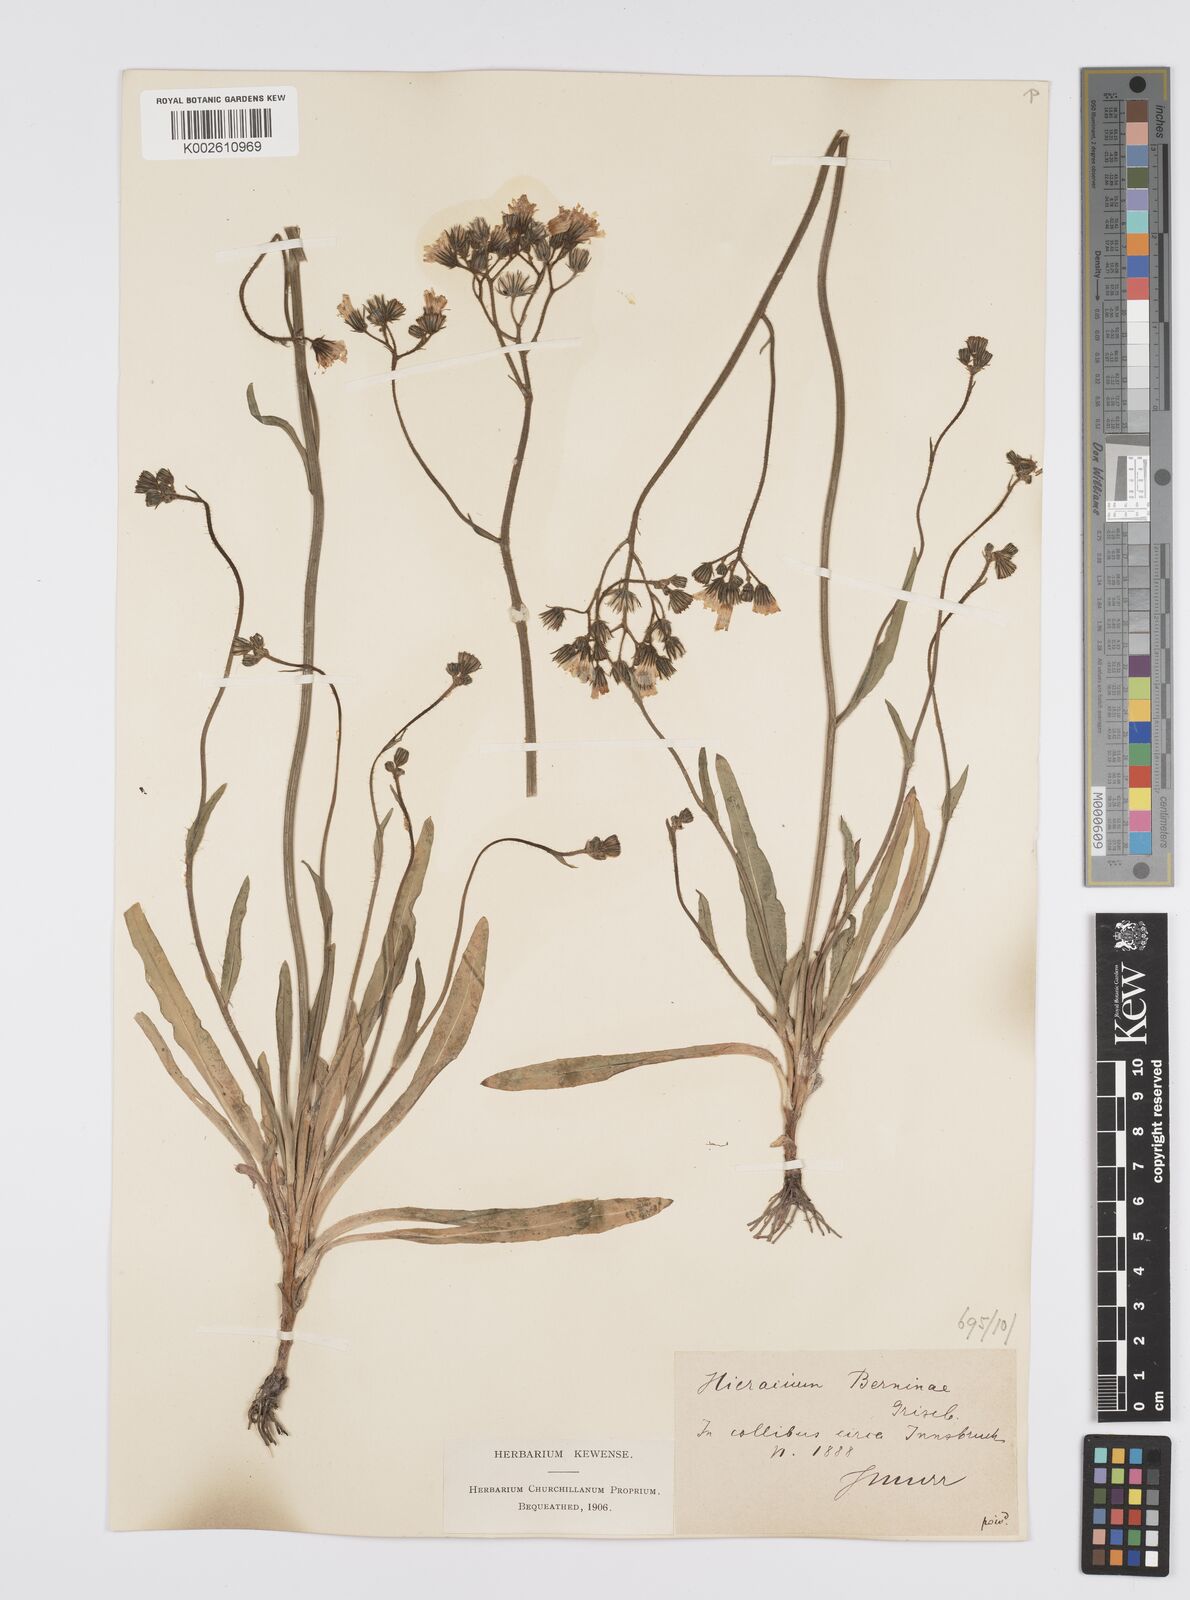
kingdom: Plantae
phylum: Tracheophyta
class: Magnoliopsida
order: Asterales
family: Asteraceae
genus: Pilosella
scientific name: Pilosella piloselloides
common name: Glaucous king-devil
